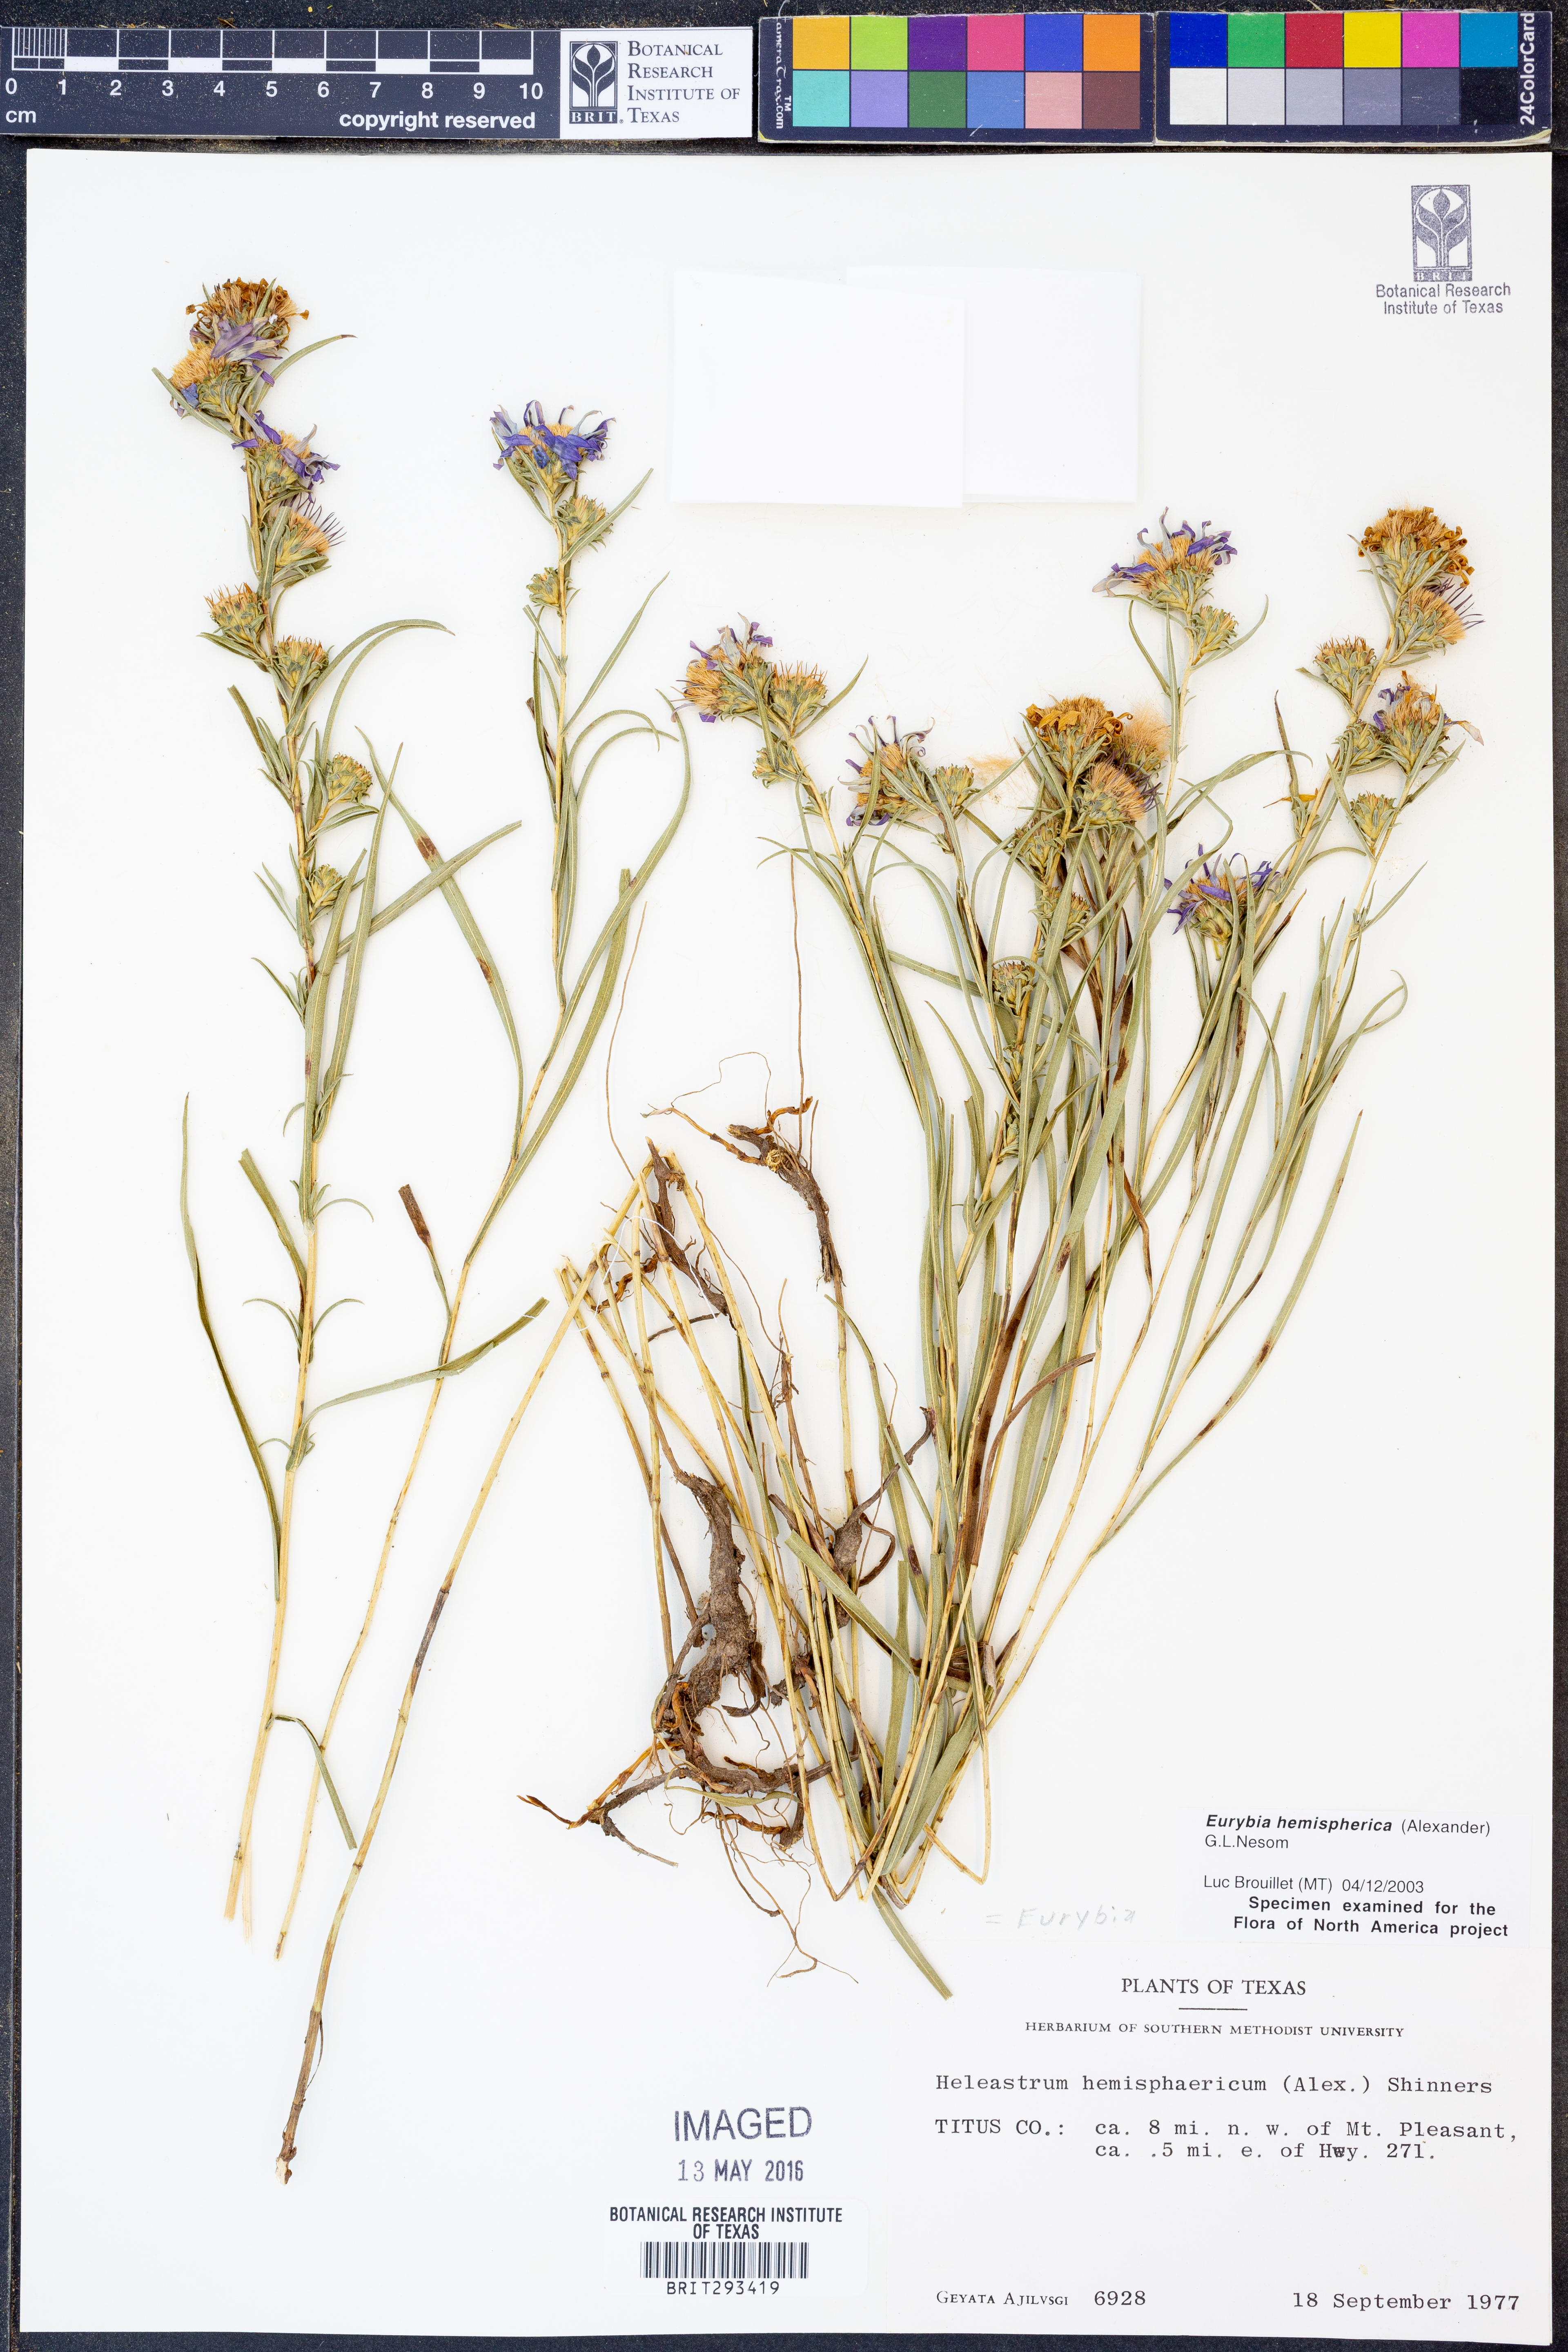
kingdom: Plantae
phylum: Tracheophyta
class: Magnoliopsida
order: Asterales
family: Asteraceae
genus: Eurybia
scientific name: Eurybia hemispherica
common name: Showy aster
